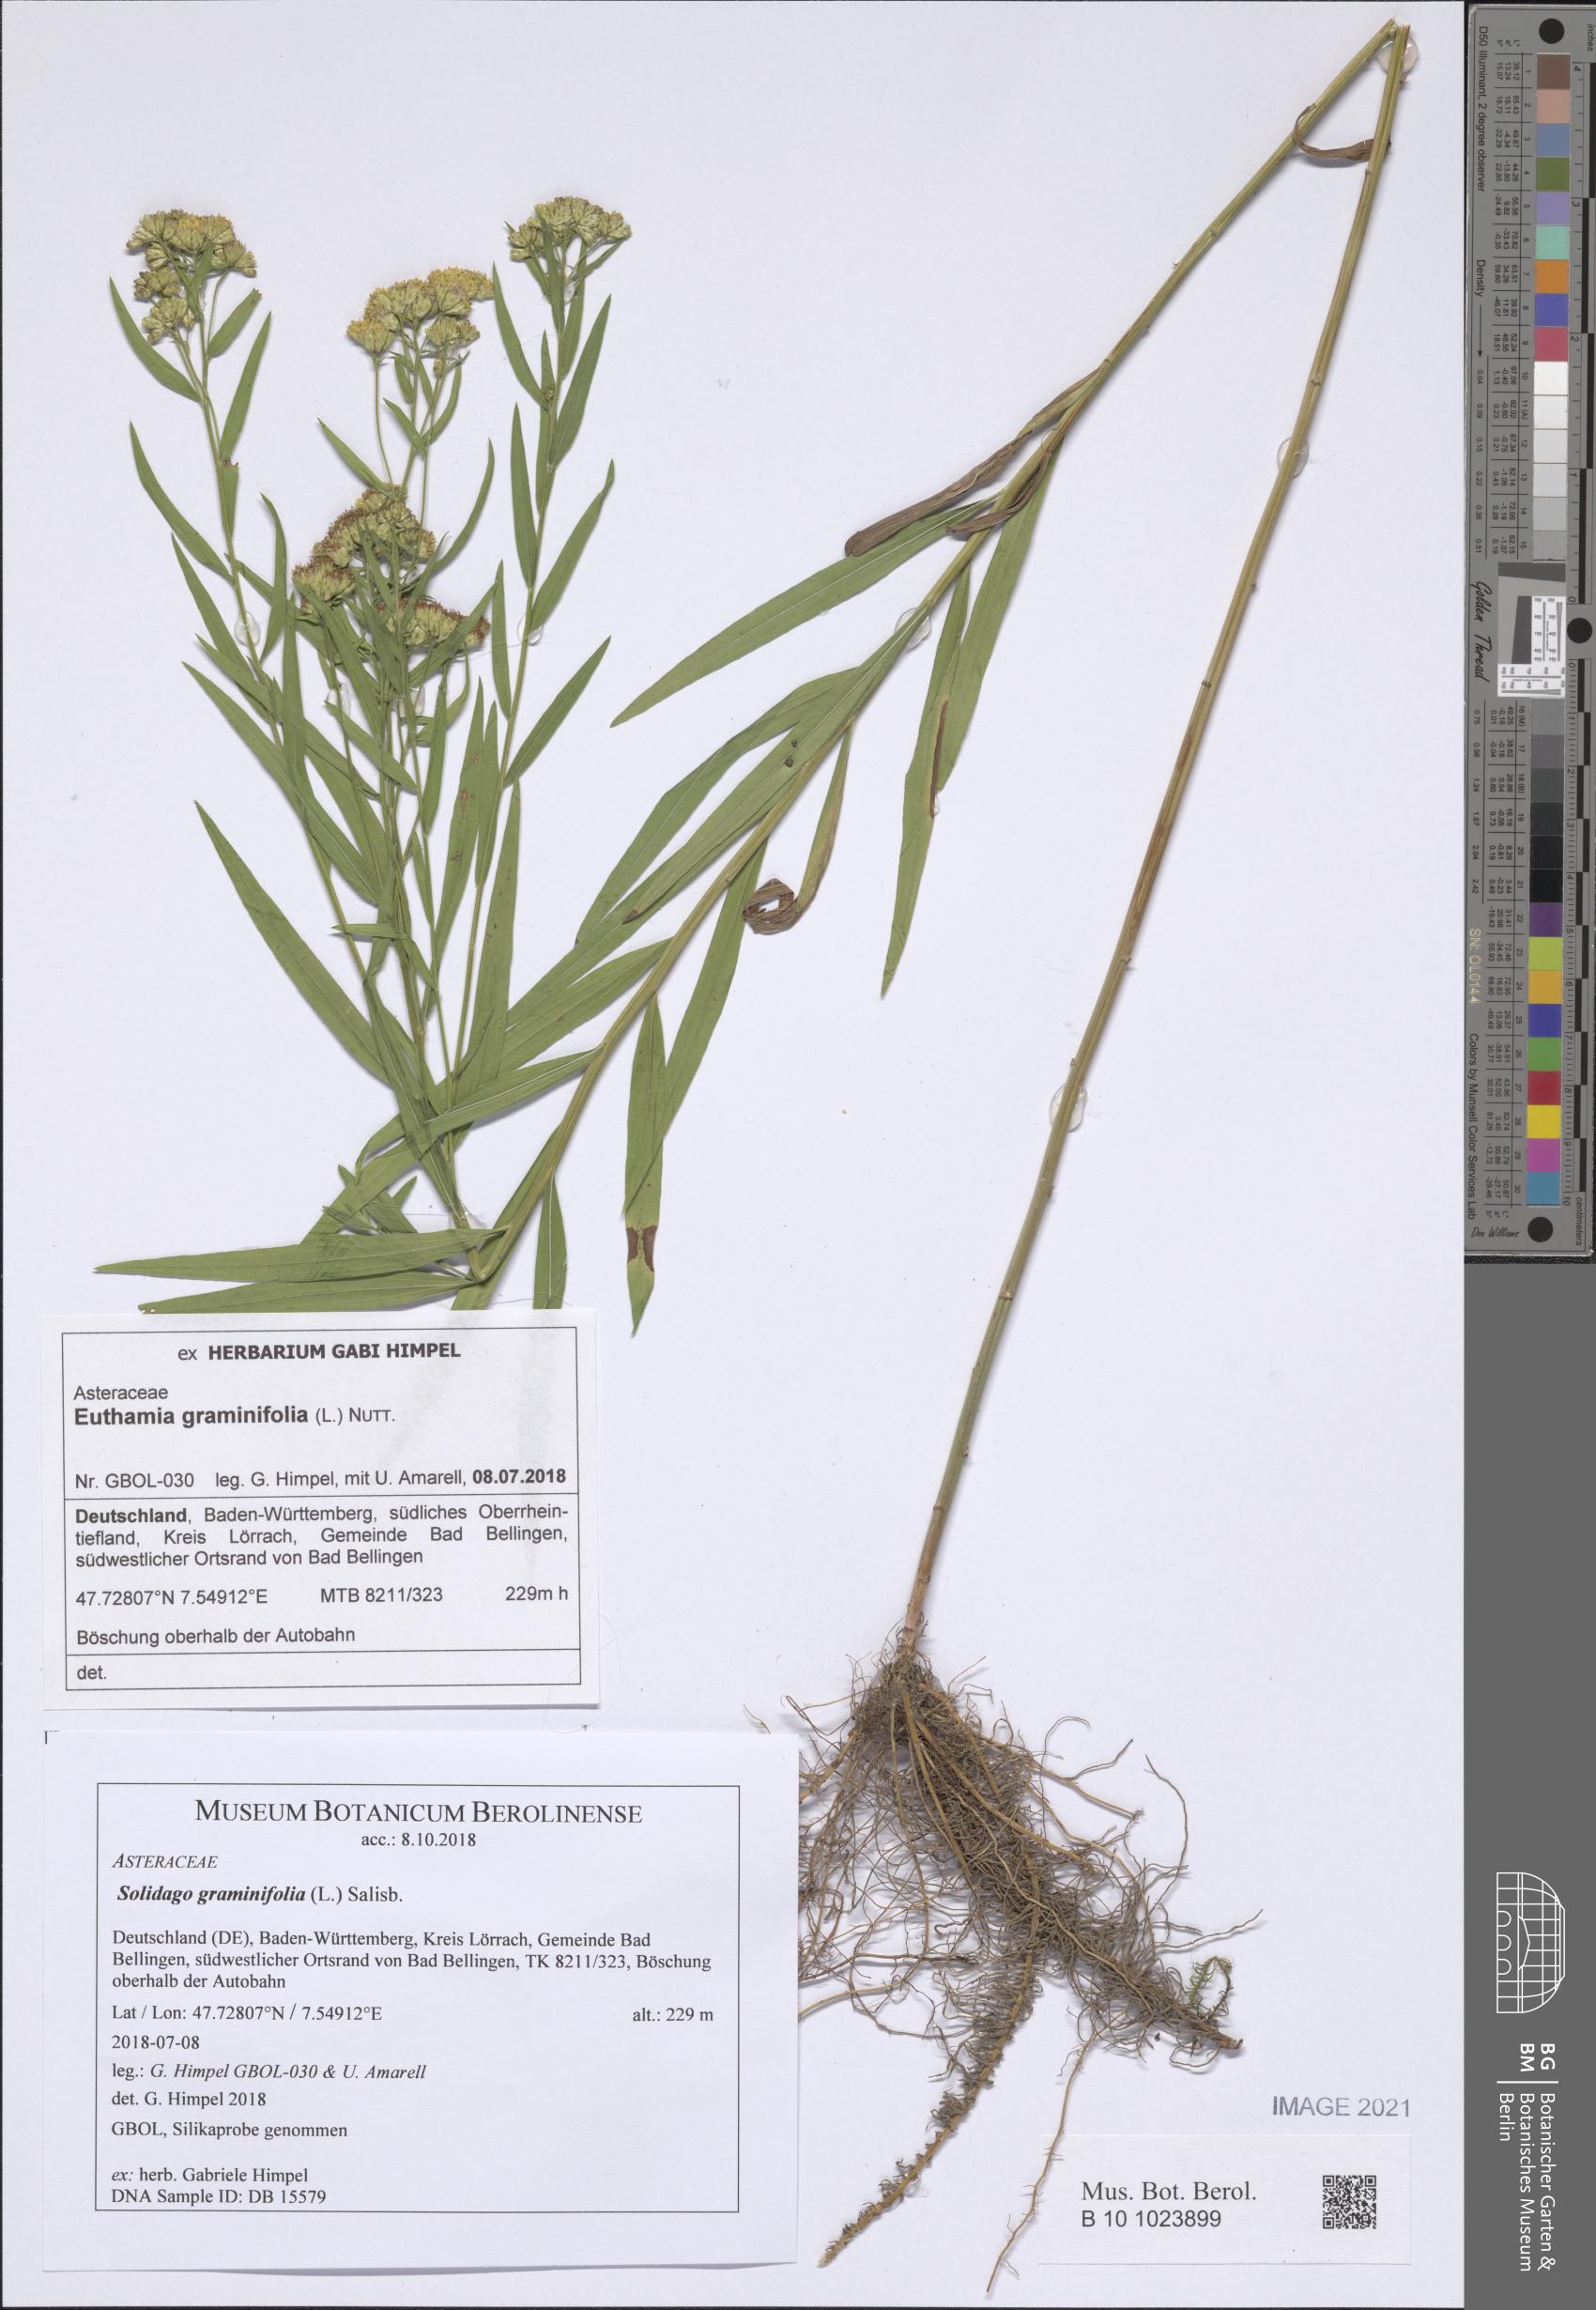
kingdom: Plantae
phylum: Tracheophyta
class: Magnoliopsida
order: Asterales
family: Asteraceae
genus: Euthamia
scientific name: Euthamia graminifolia
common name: Common goldentop
